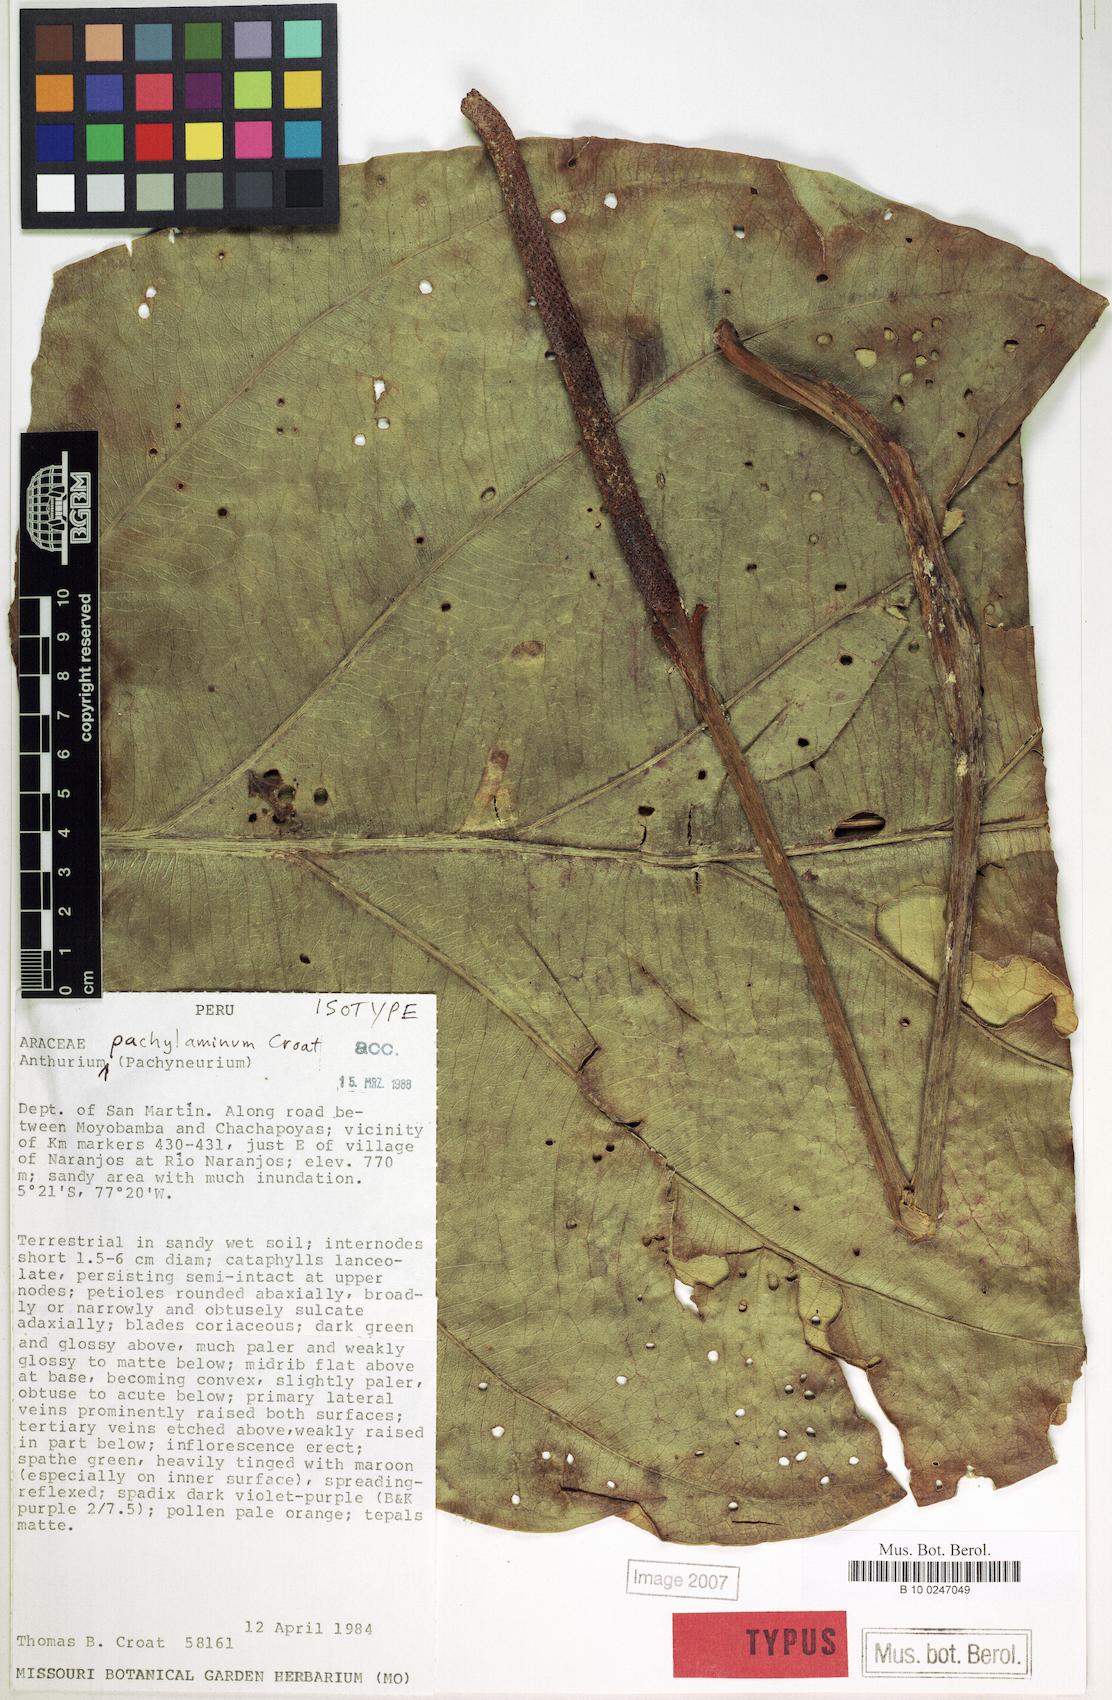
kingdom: Plantae
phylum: Tracheophyta
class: Liliopsida
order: Alismatales
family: Araceae
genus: Anthurium
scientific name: Anthurium pachylaminum
